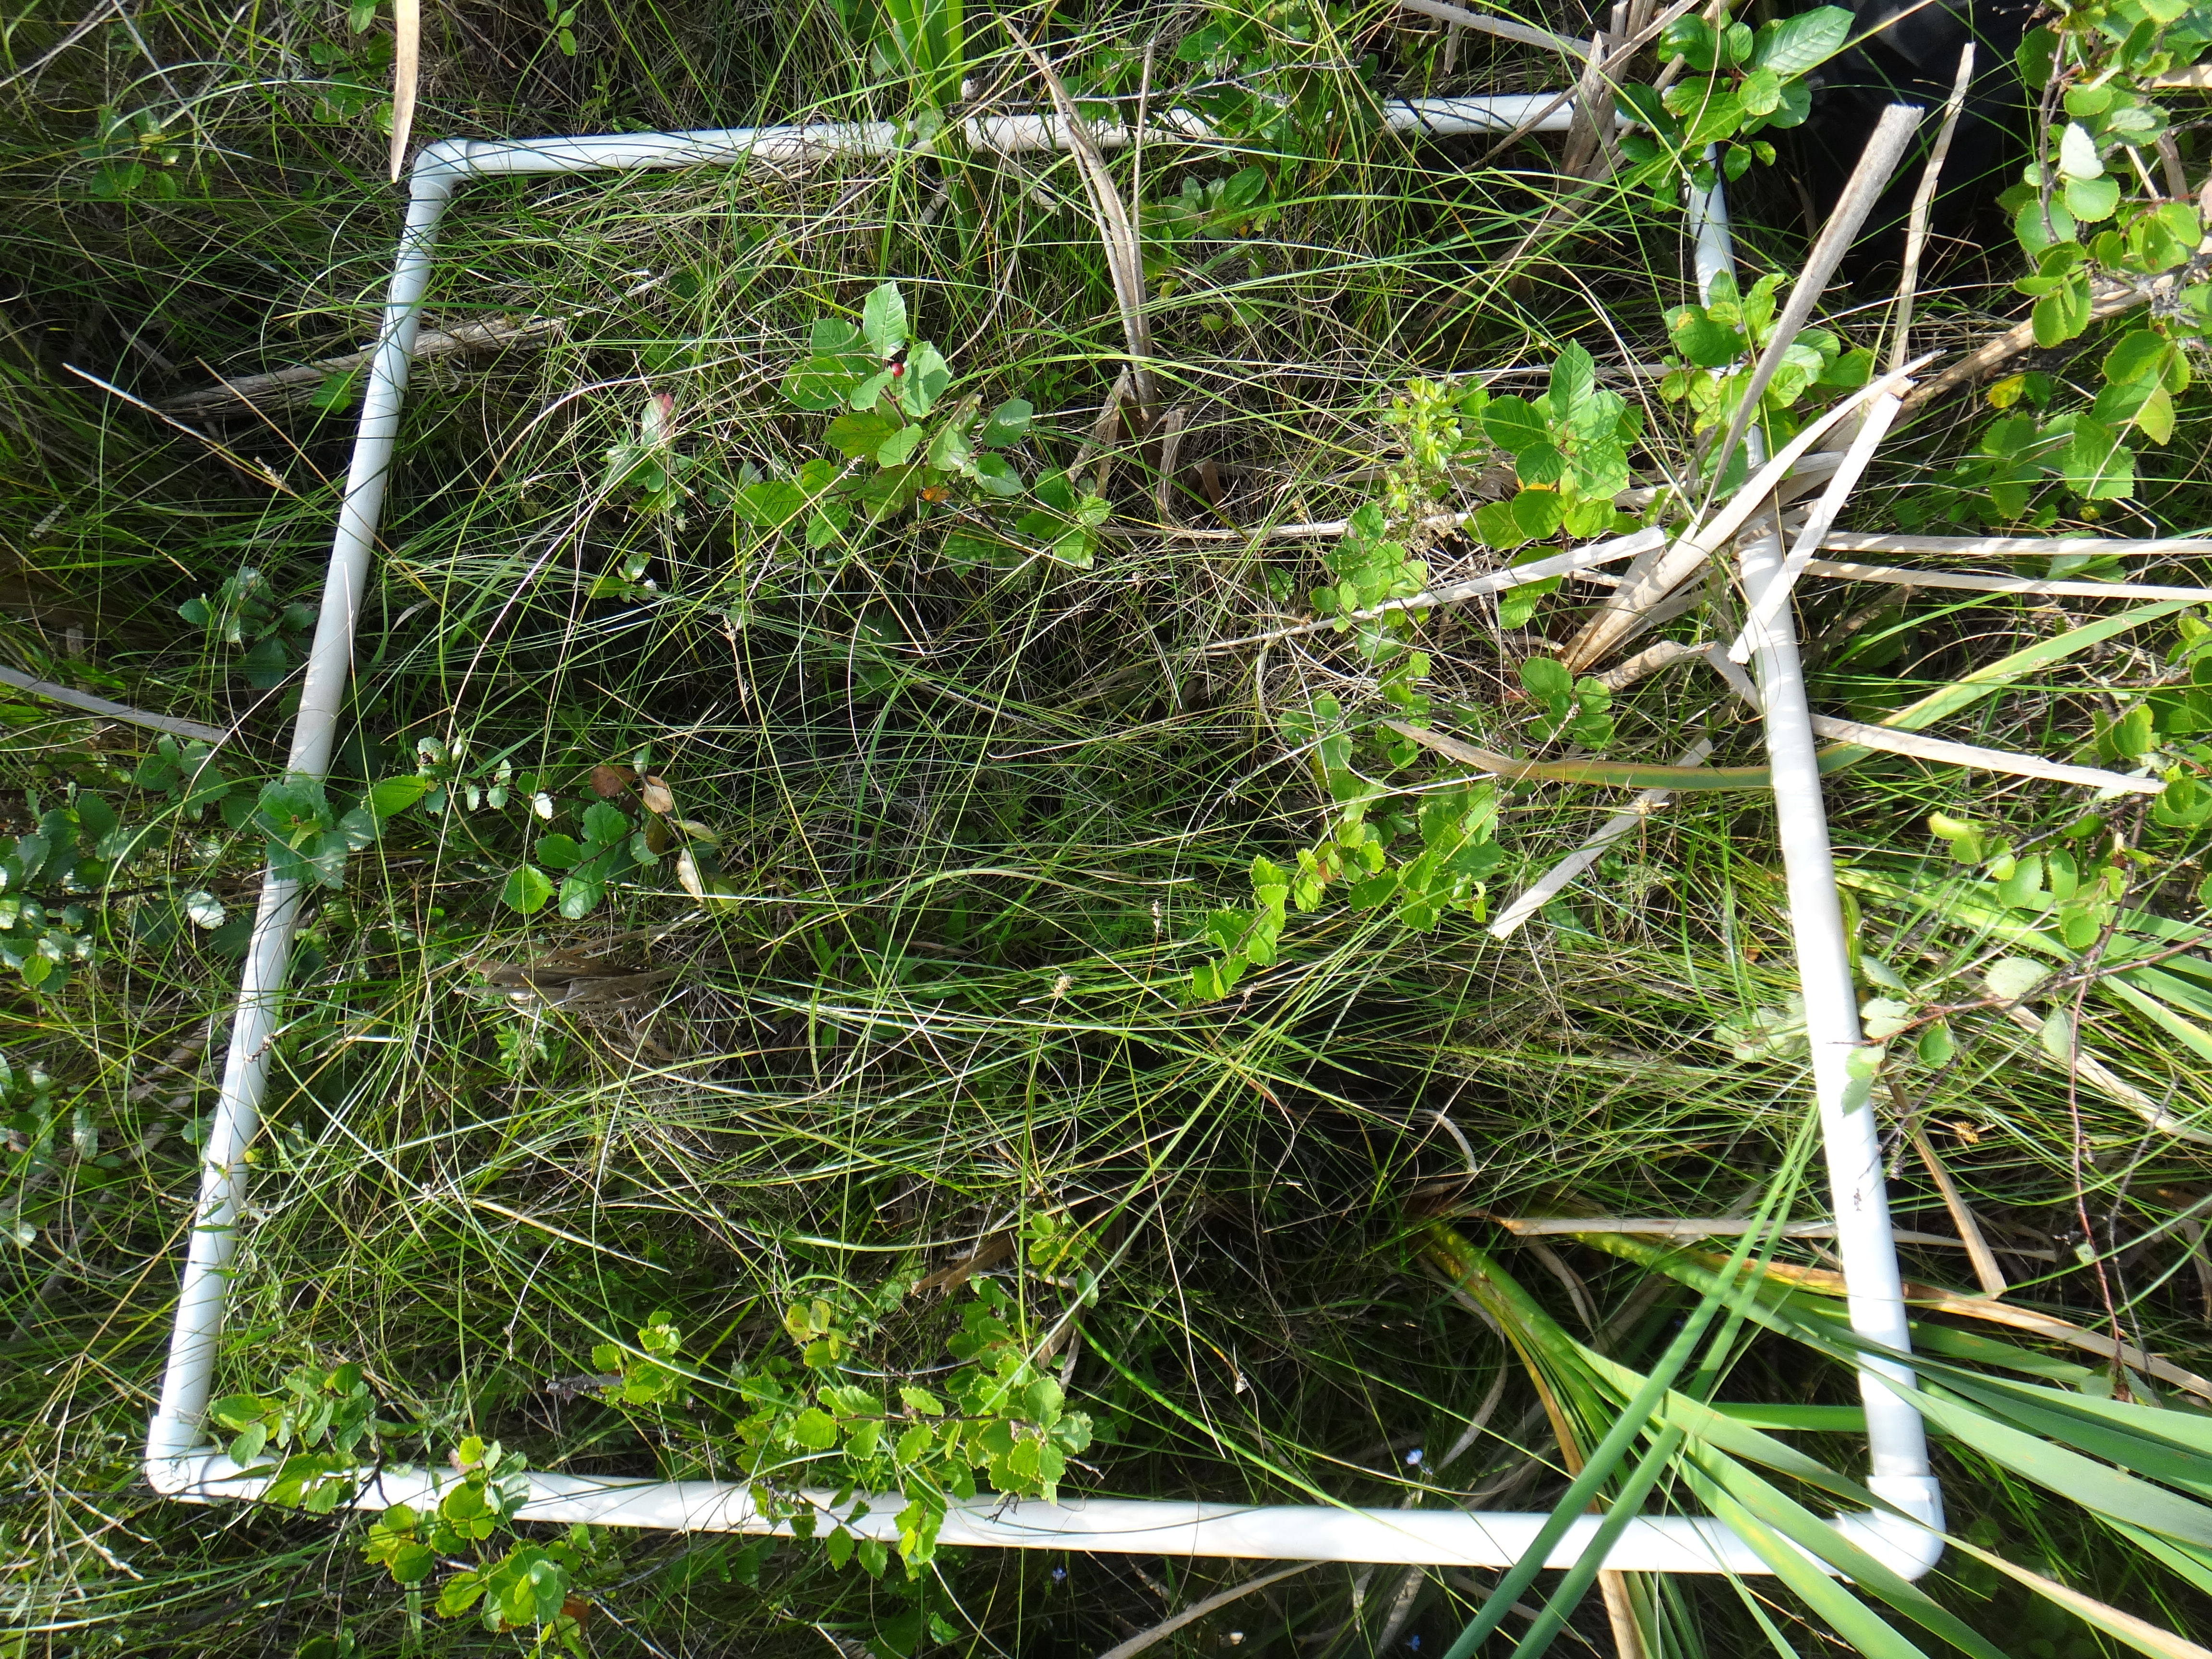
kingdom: Plantae
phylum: Tracheophyta
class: Liliopsida
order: Poales
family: Cyperaceae
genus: Eleocharis
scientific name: Eleocharis elliptica
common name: Capitate spikerush
